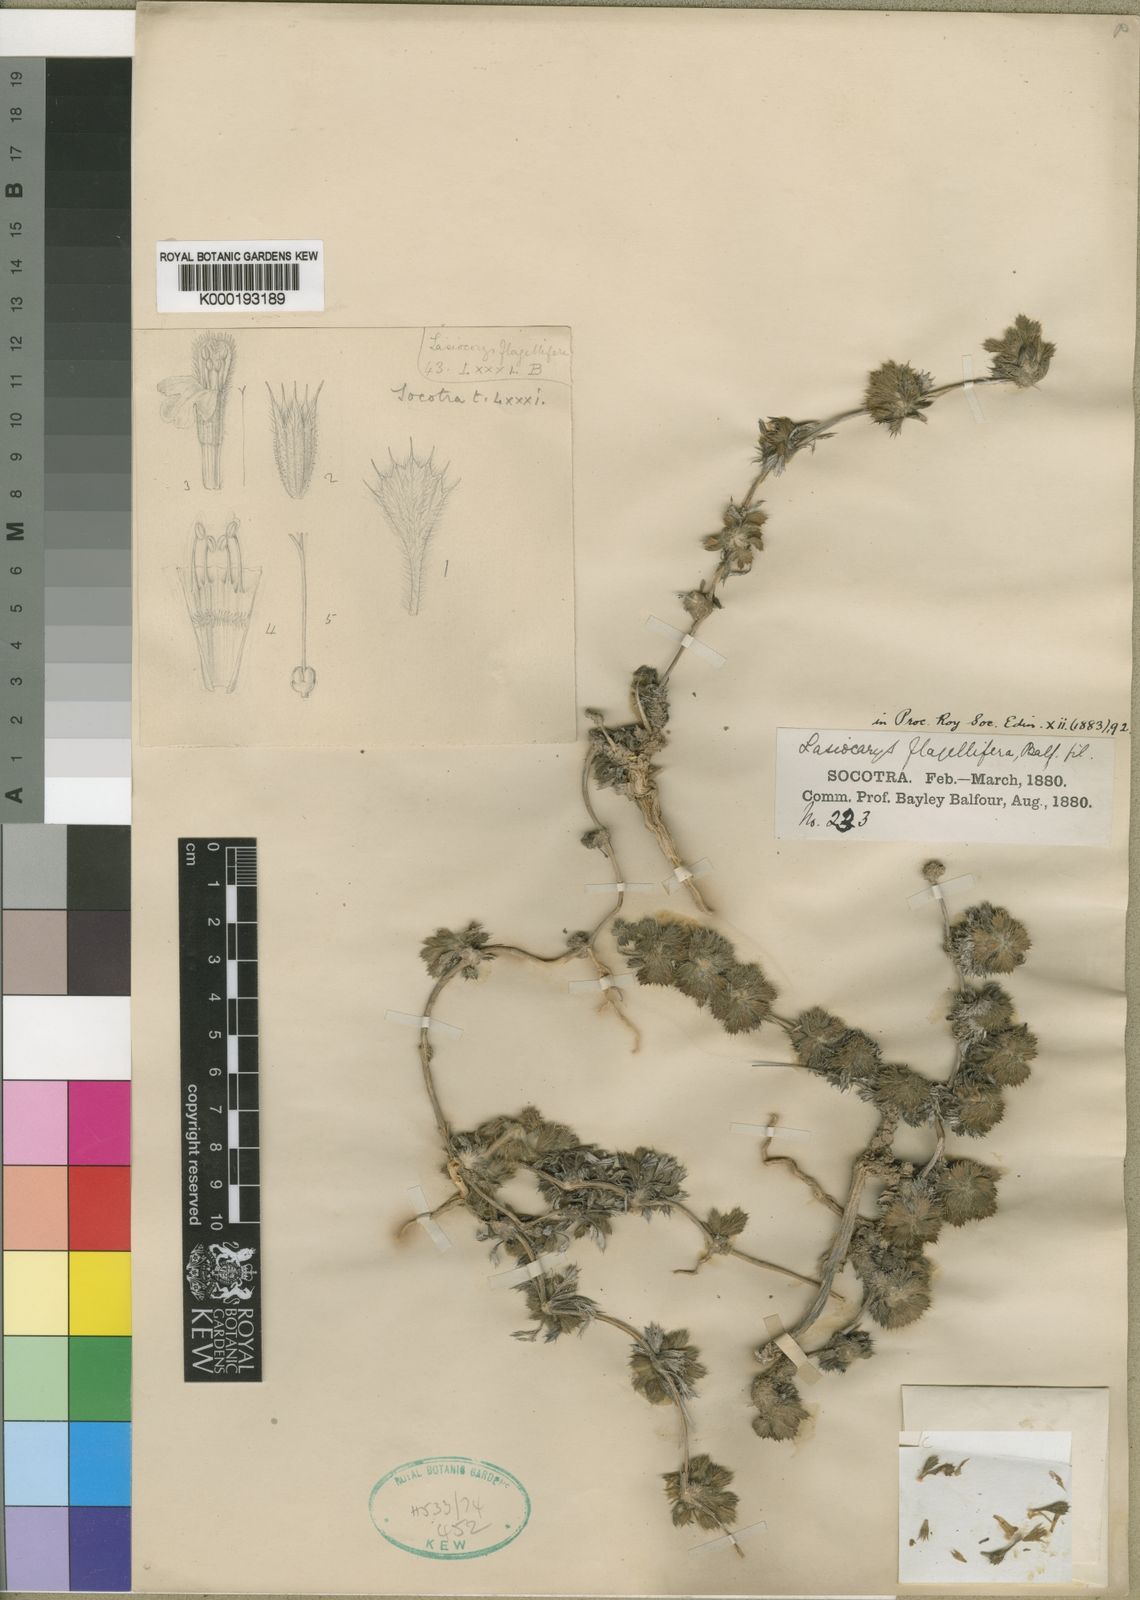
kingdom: Plantae
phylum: Tracheophyta
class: Magnoliopsida
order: Lamiales
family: Lamiaceae
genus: Leucas
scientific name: Leucas flagellifera
